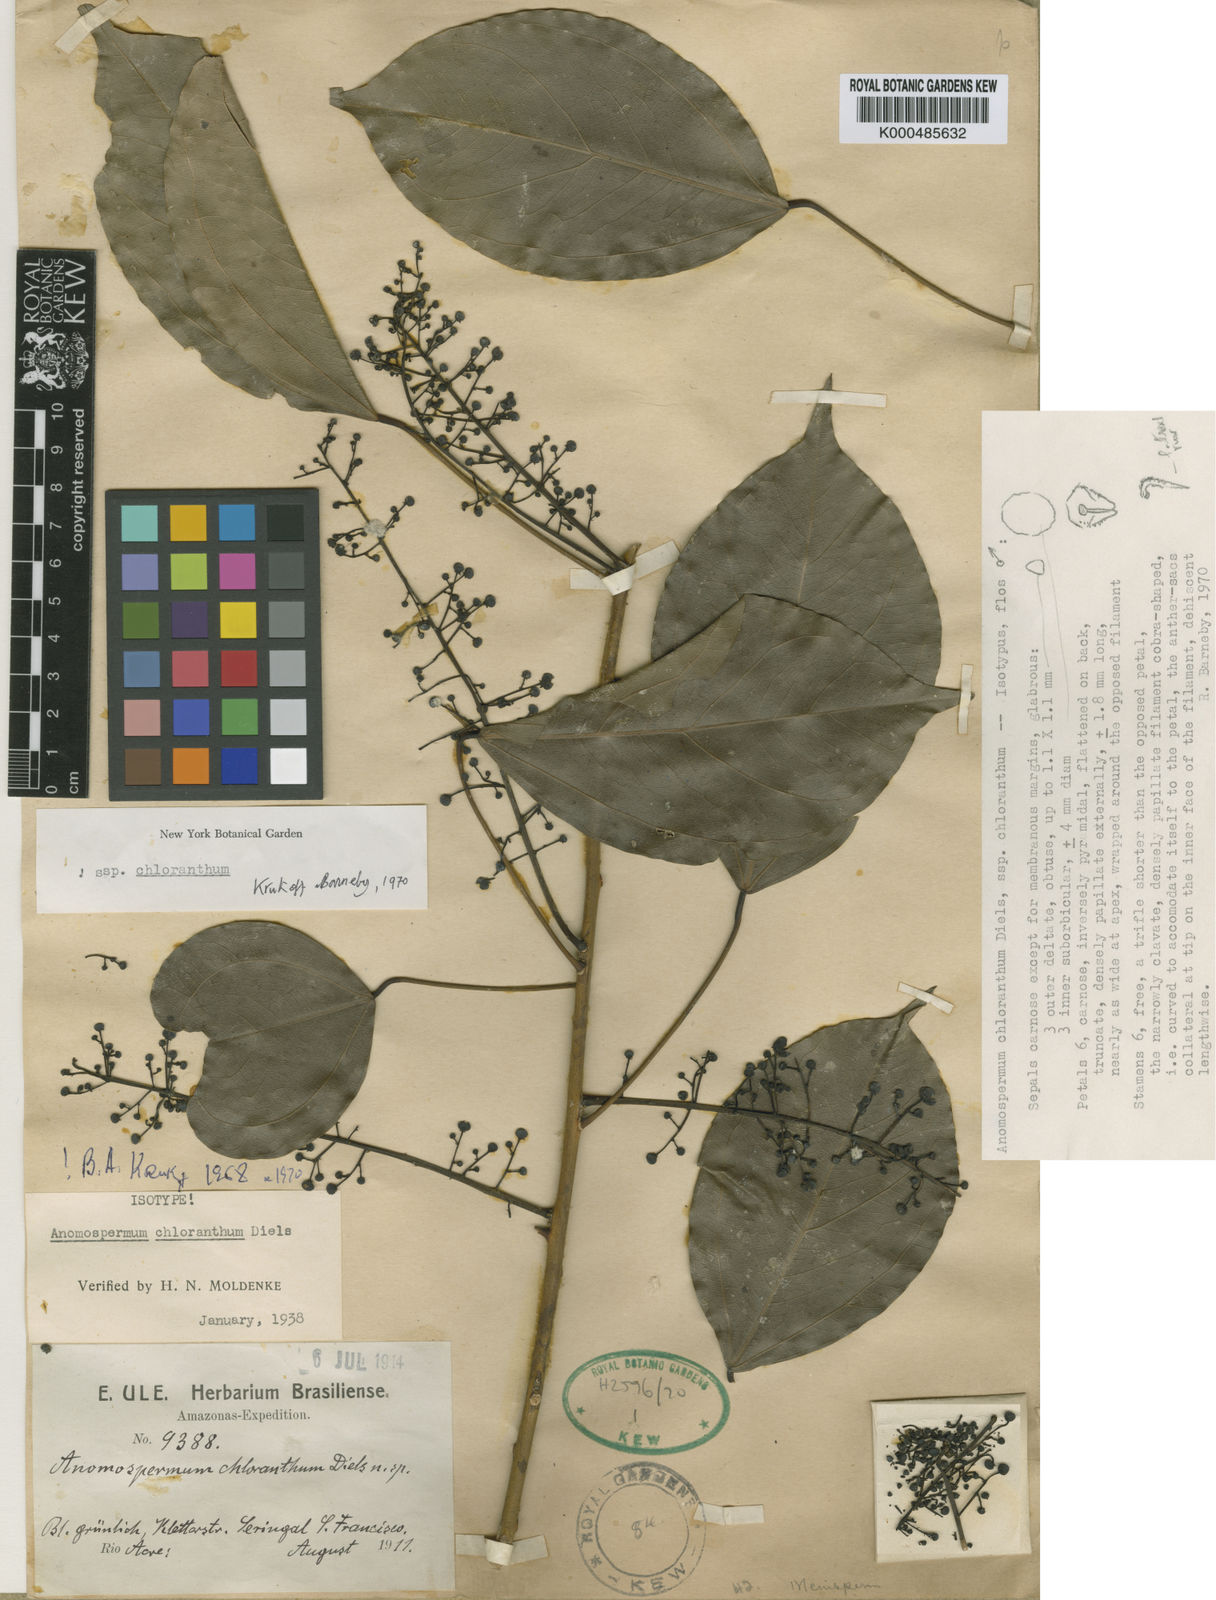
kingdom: Plantae
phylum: Tracheophyta
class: Magnoliopsida
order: Ranunculales
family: Menispermaceae
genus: Anomospermum
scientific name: Anomospermum chloranthum
